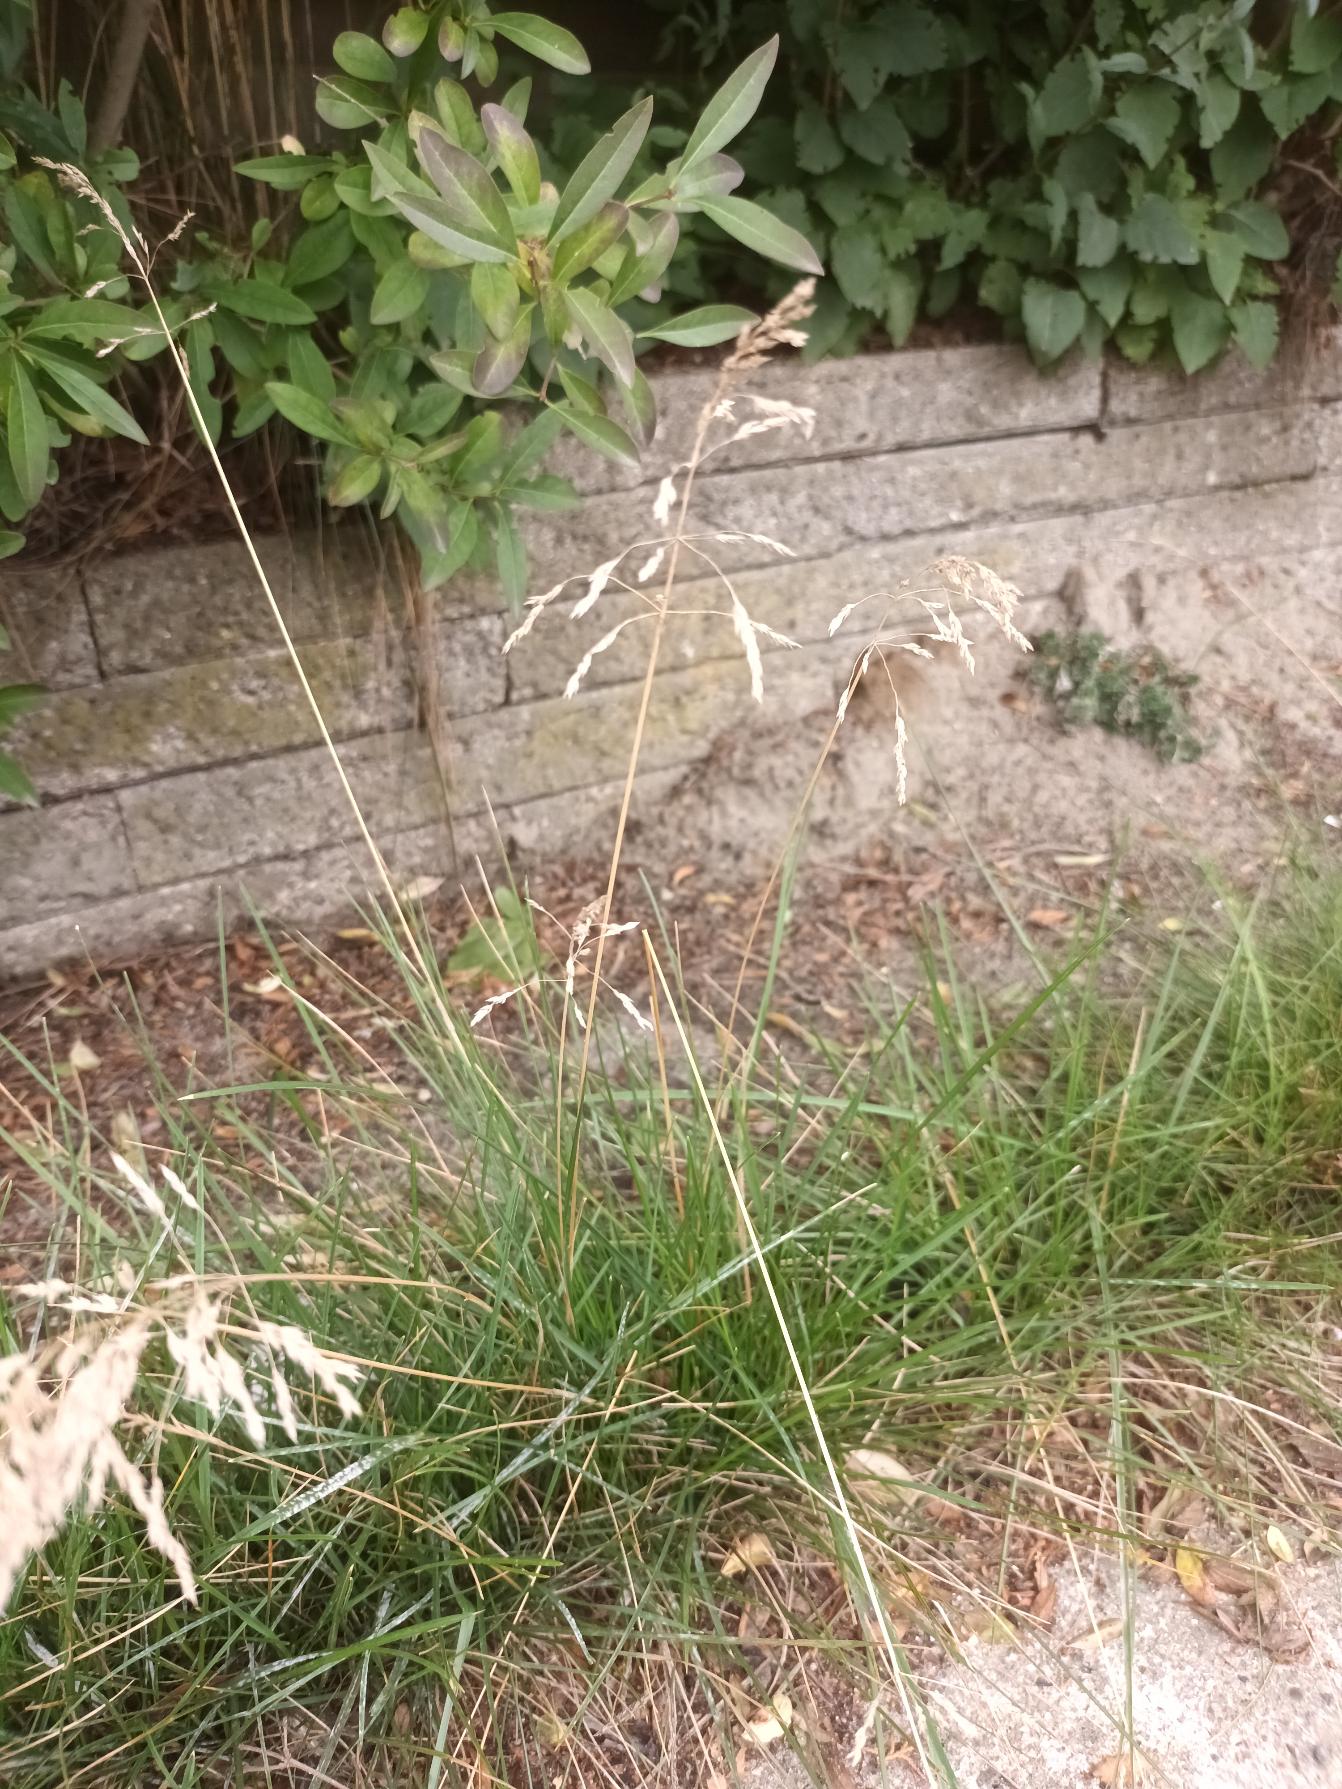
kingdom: Plantae
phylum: Tracheophyta
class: Liliopsida
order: Poales
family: Poaceae
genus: Poa
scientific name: Poa pratensis
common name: Eng-rapgræs
